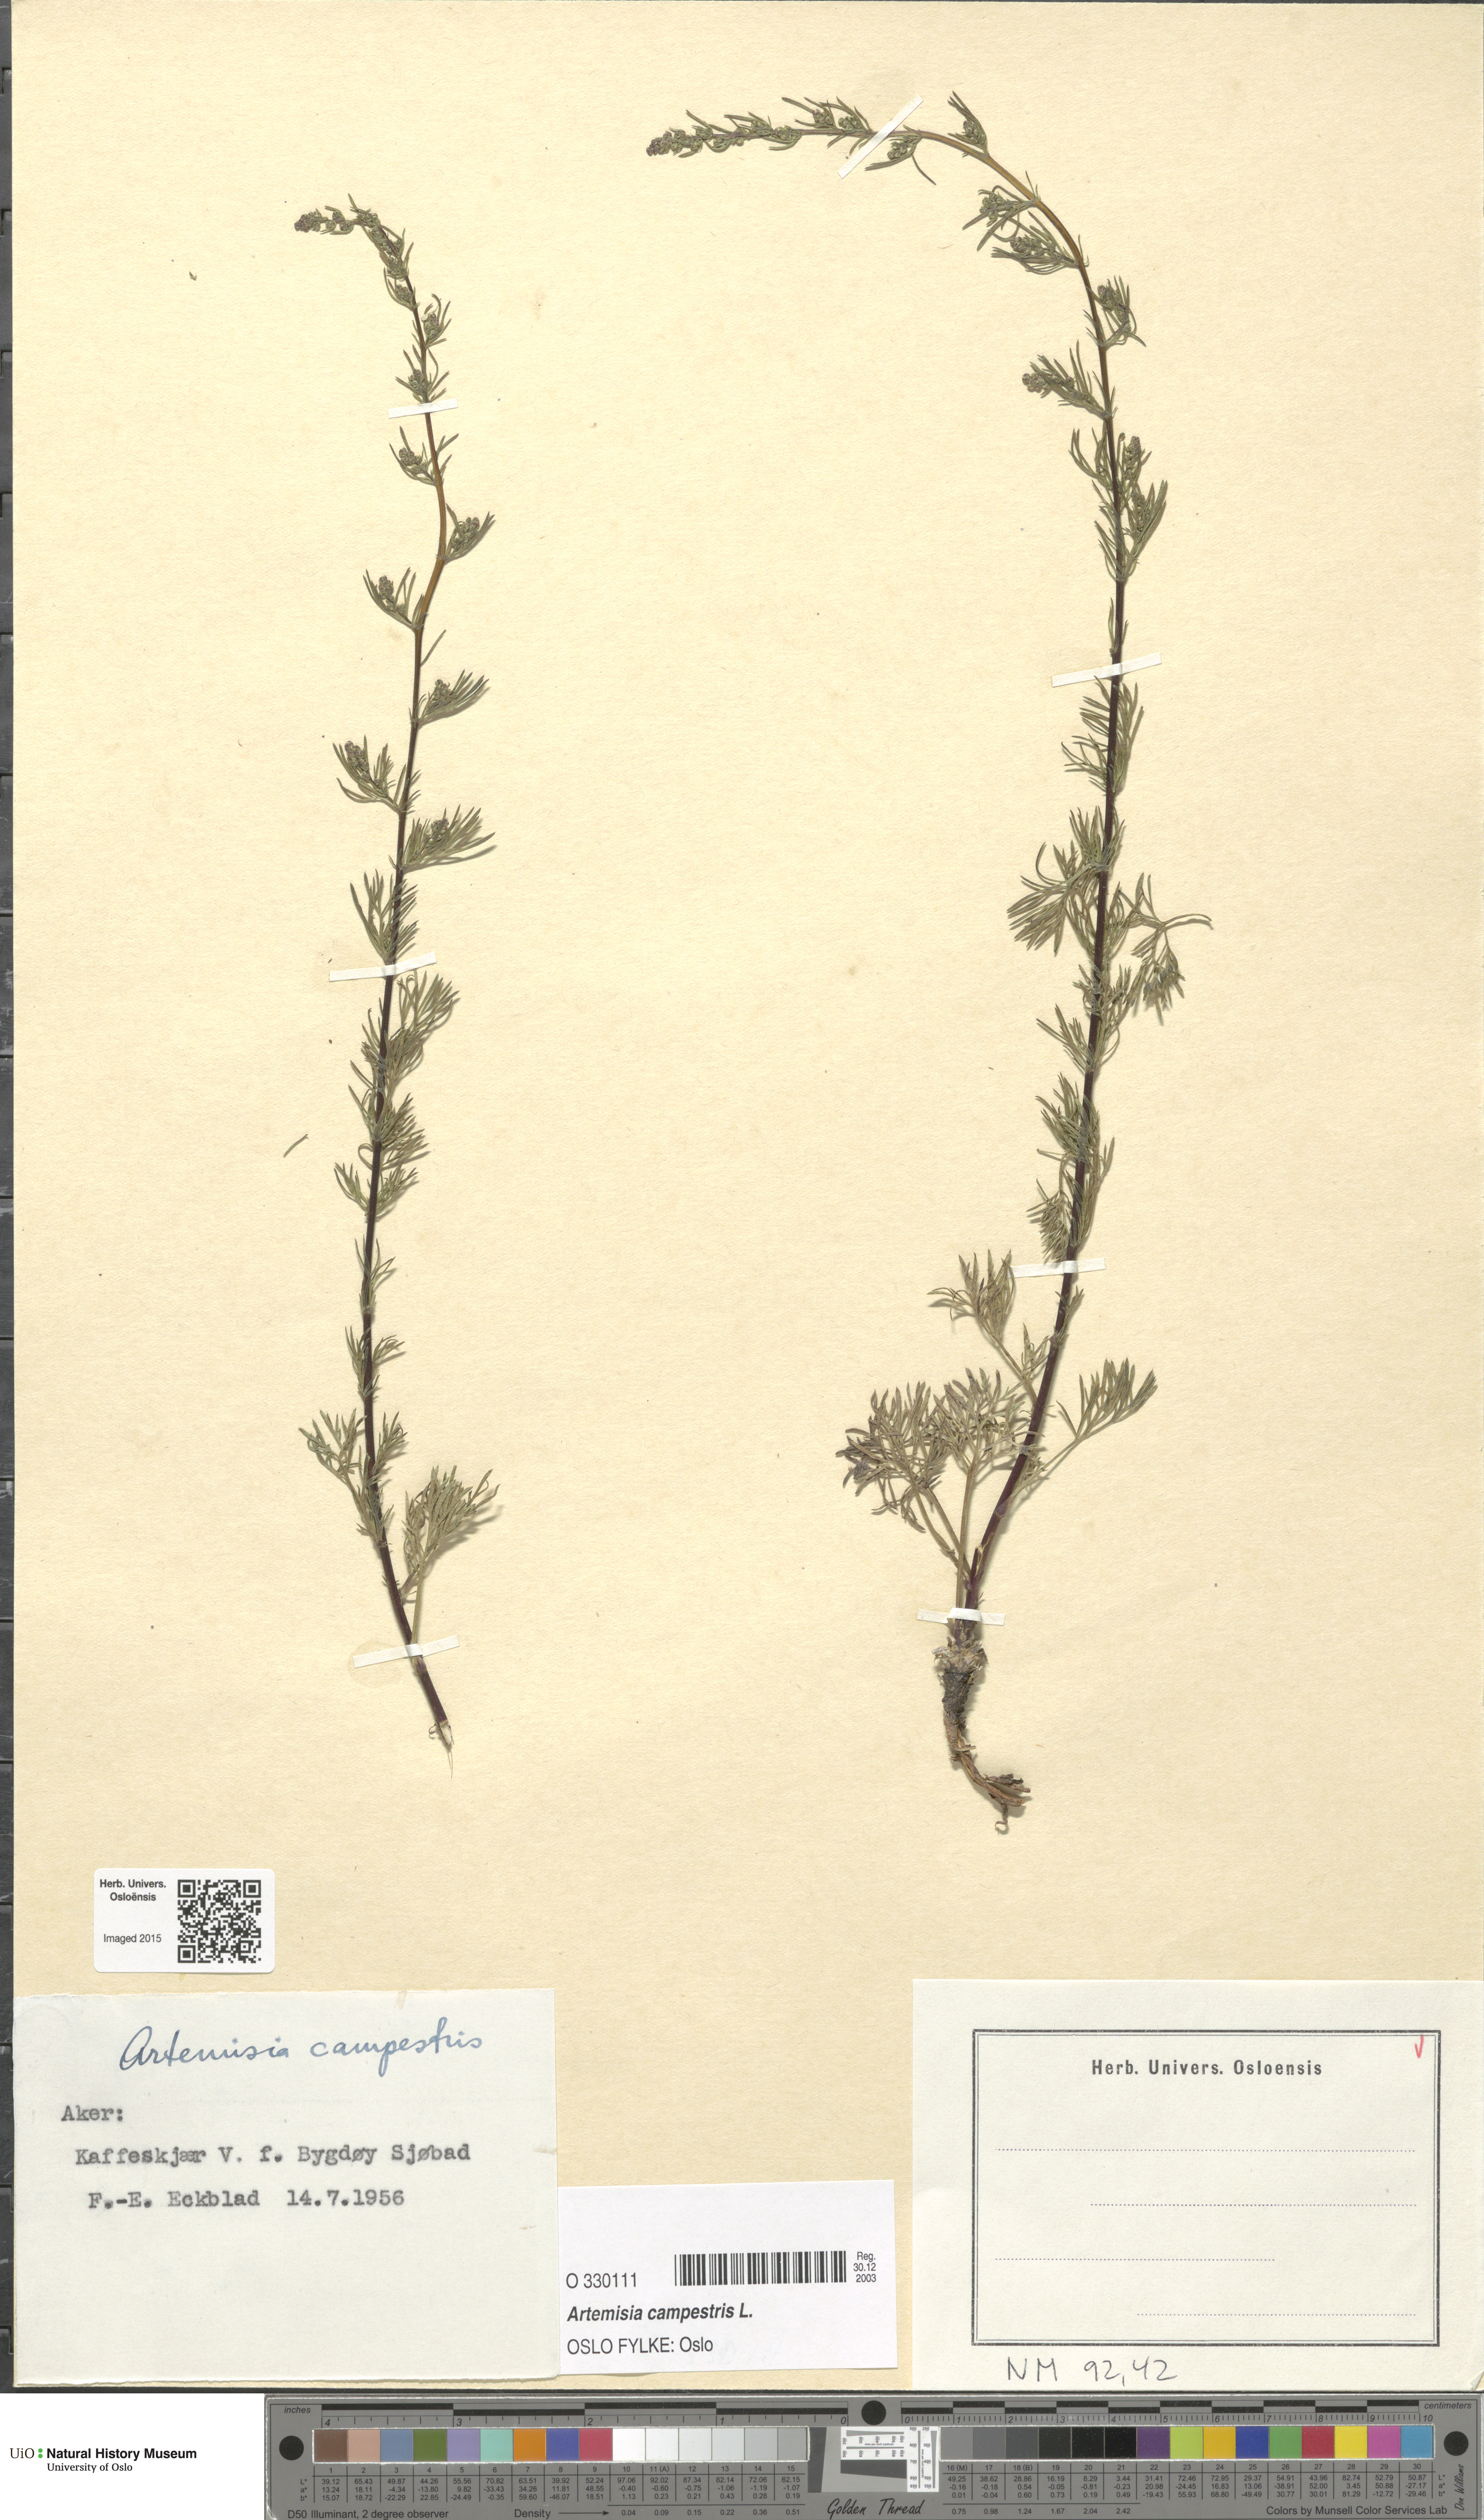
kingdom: Plantae
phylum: Tracheophyta
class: Magnoliopsida
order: Asterales
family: Asteraceae
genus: Artemisia
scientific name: Artemisia campestris
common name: Field wormwood
